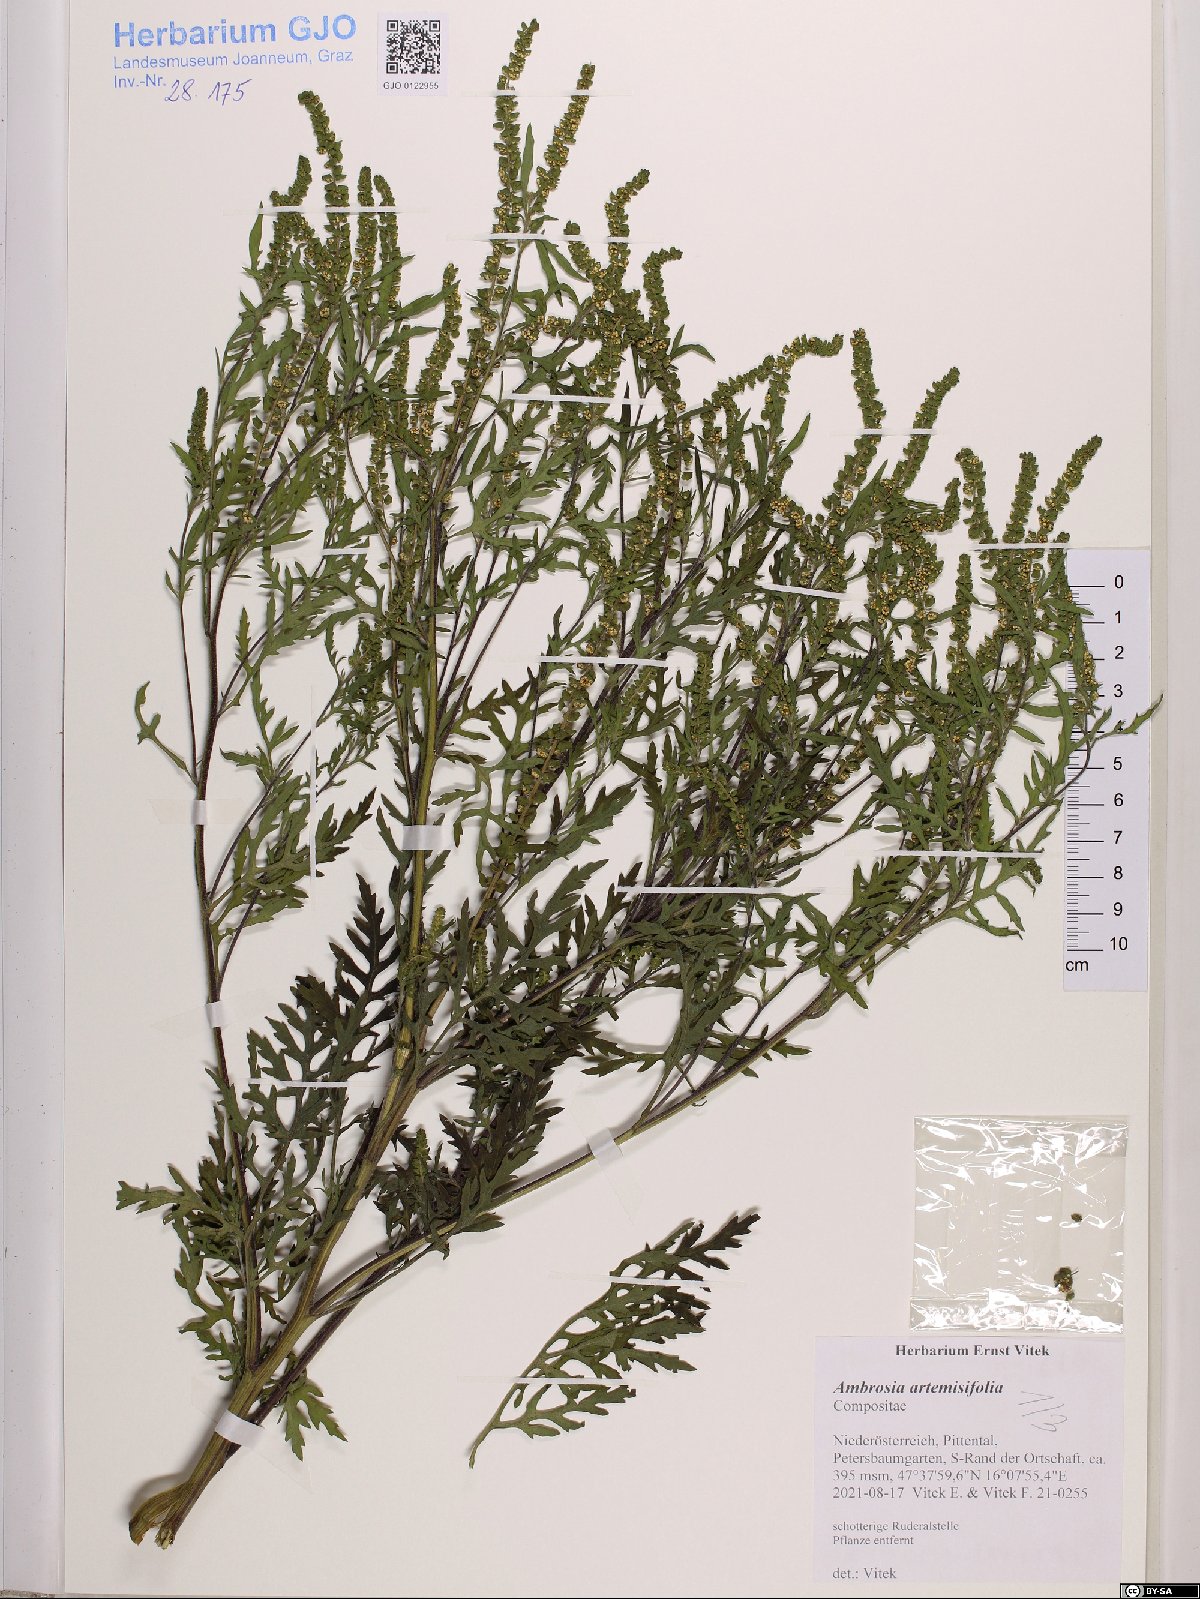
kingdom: Plantae
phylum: Tracheophyta
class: Magnoliopsida
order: Asterales
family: Asteraceae
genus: Ambrosia
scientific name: Ambrosia artemisiifolia
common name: Annual ragweed
